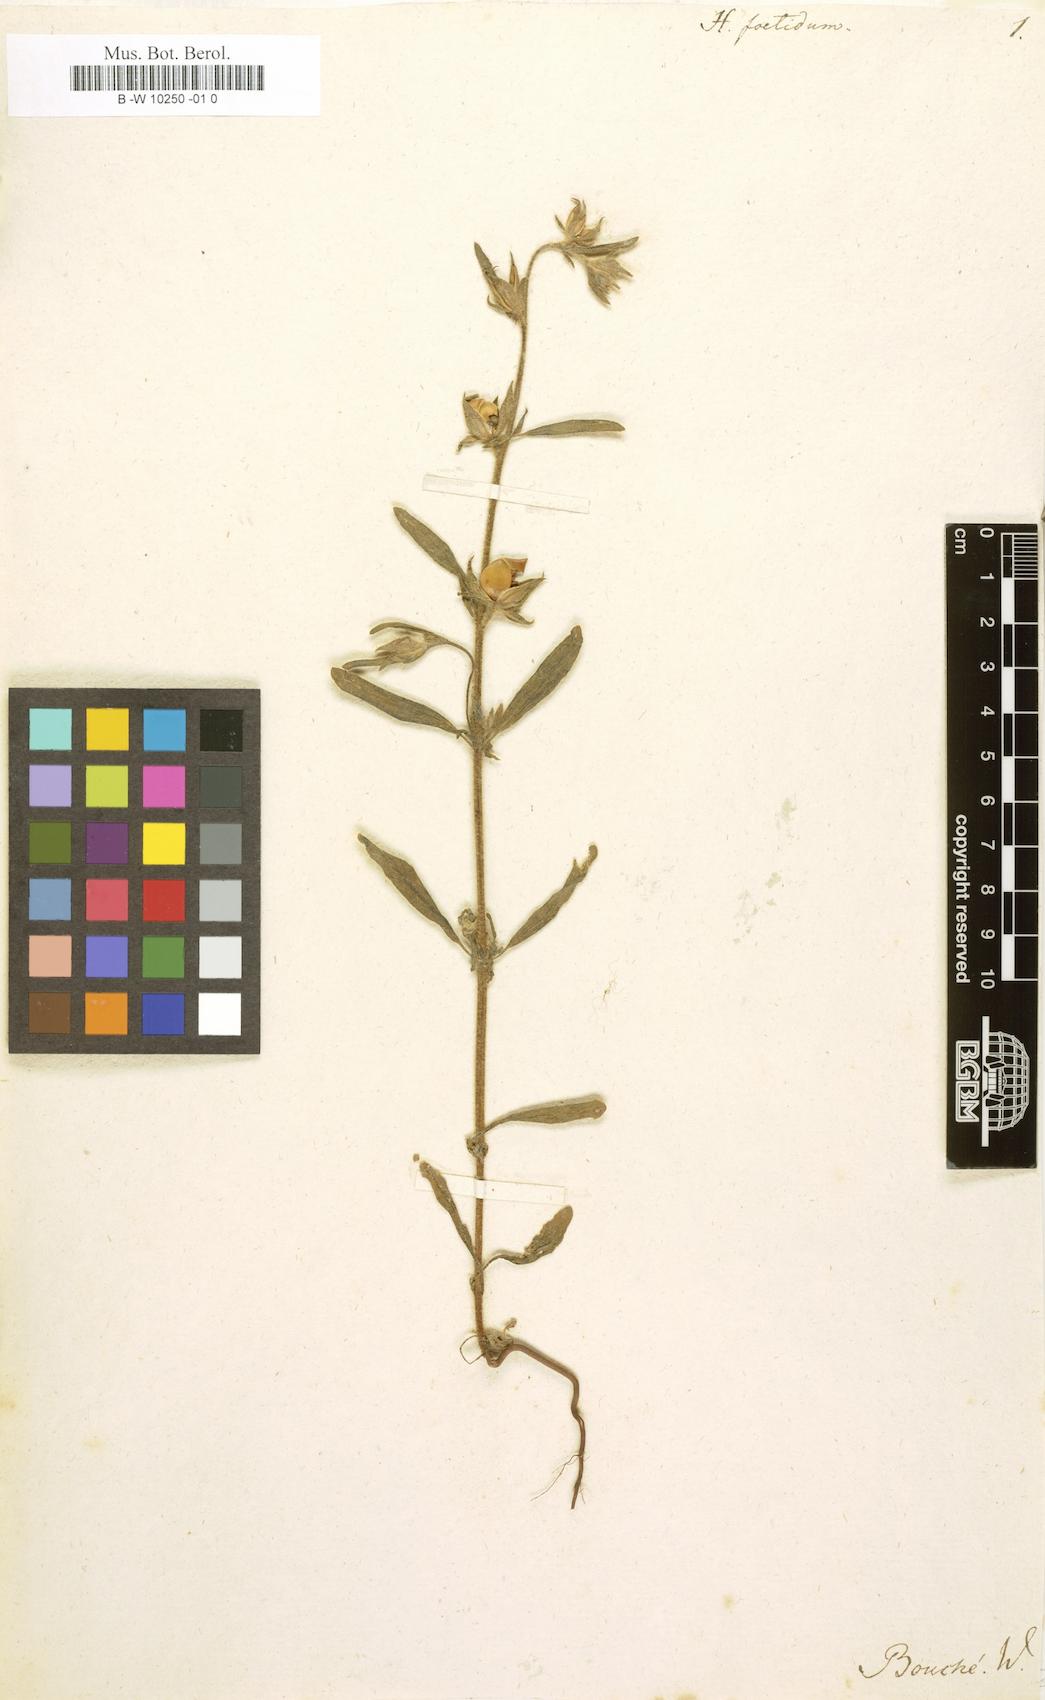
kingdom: Plantae
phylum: Tracheophyta
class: Magnoliopsida
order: Malvales
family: Cistaceae
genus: Helianthemum
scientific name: Helianthemum nummularium
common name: Common rock-rose
